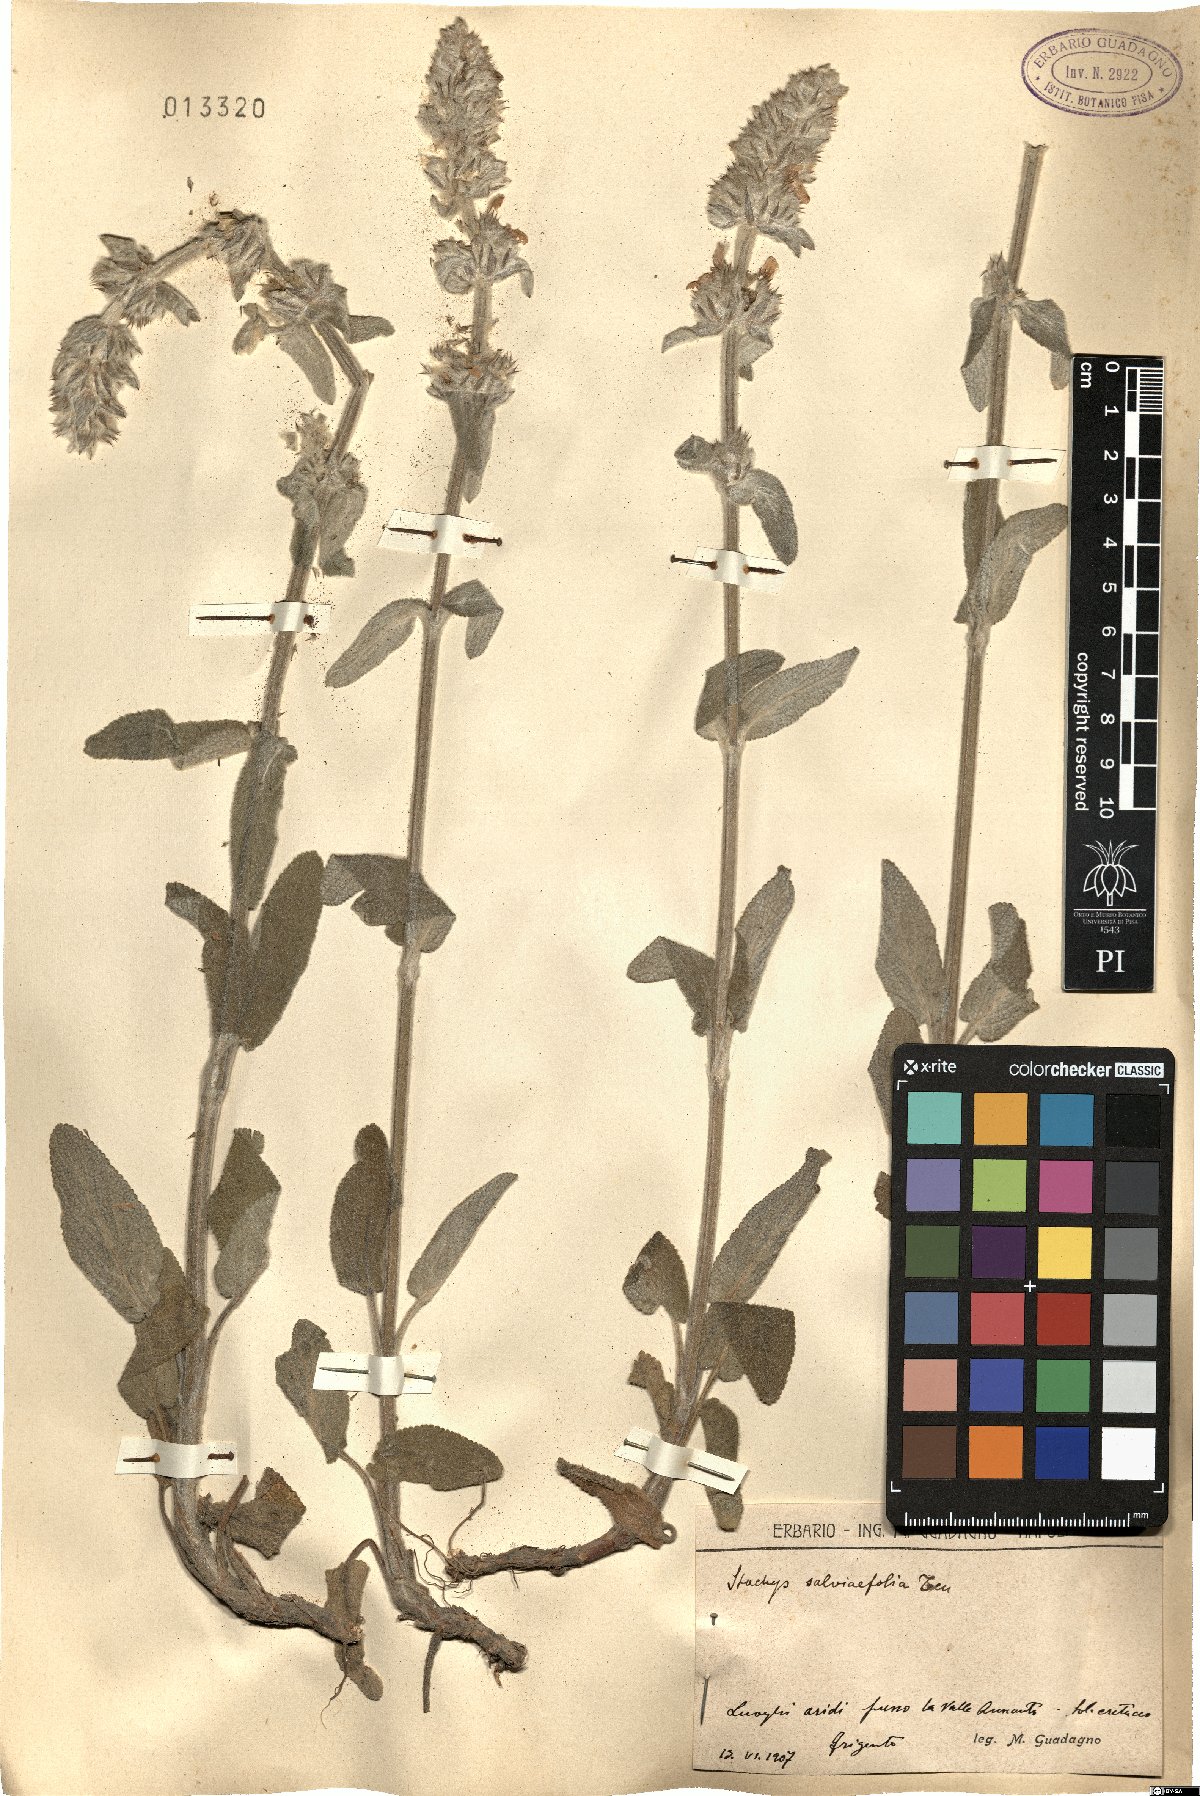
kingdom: Plantae
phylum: Tracheophyta
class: Magnoliopsida
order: Lamiales
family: Lamiaceae
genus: Stachys
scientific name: Stachys cretica
